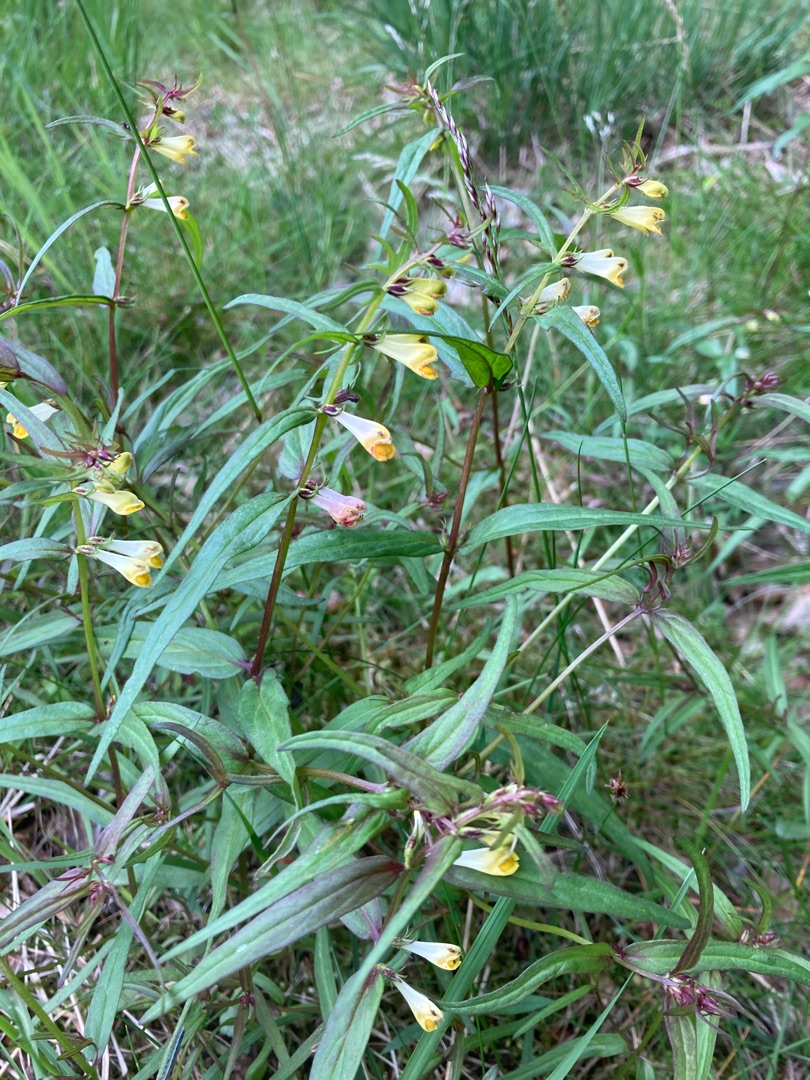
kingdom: Plantae
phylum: Tracheophyta
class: Magnoliopsida
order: Lamiales
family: Orobanchaceae
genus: Melampyrum
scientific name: Melampyrum pratense
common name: Almindelig kohvede
